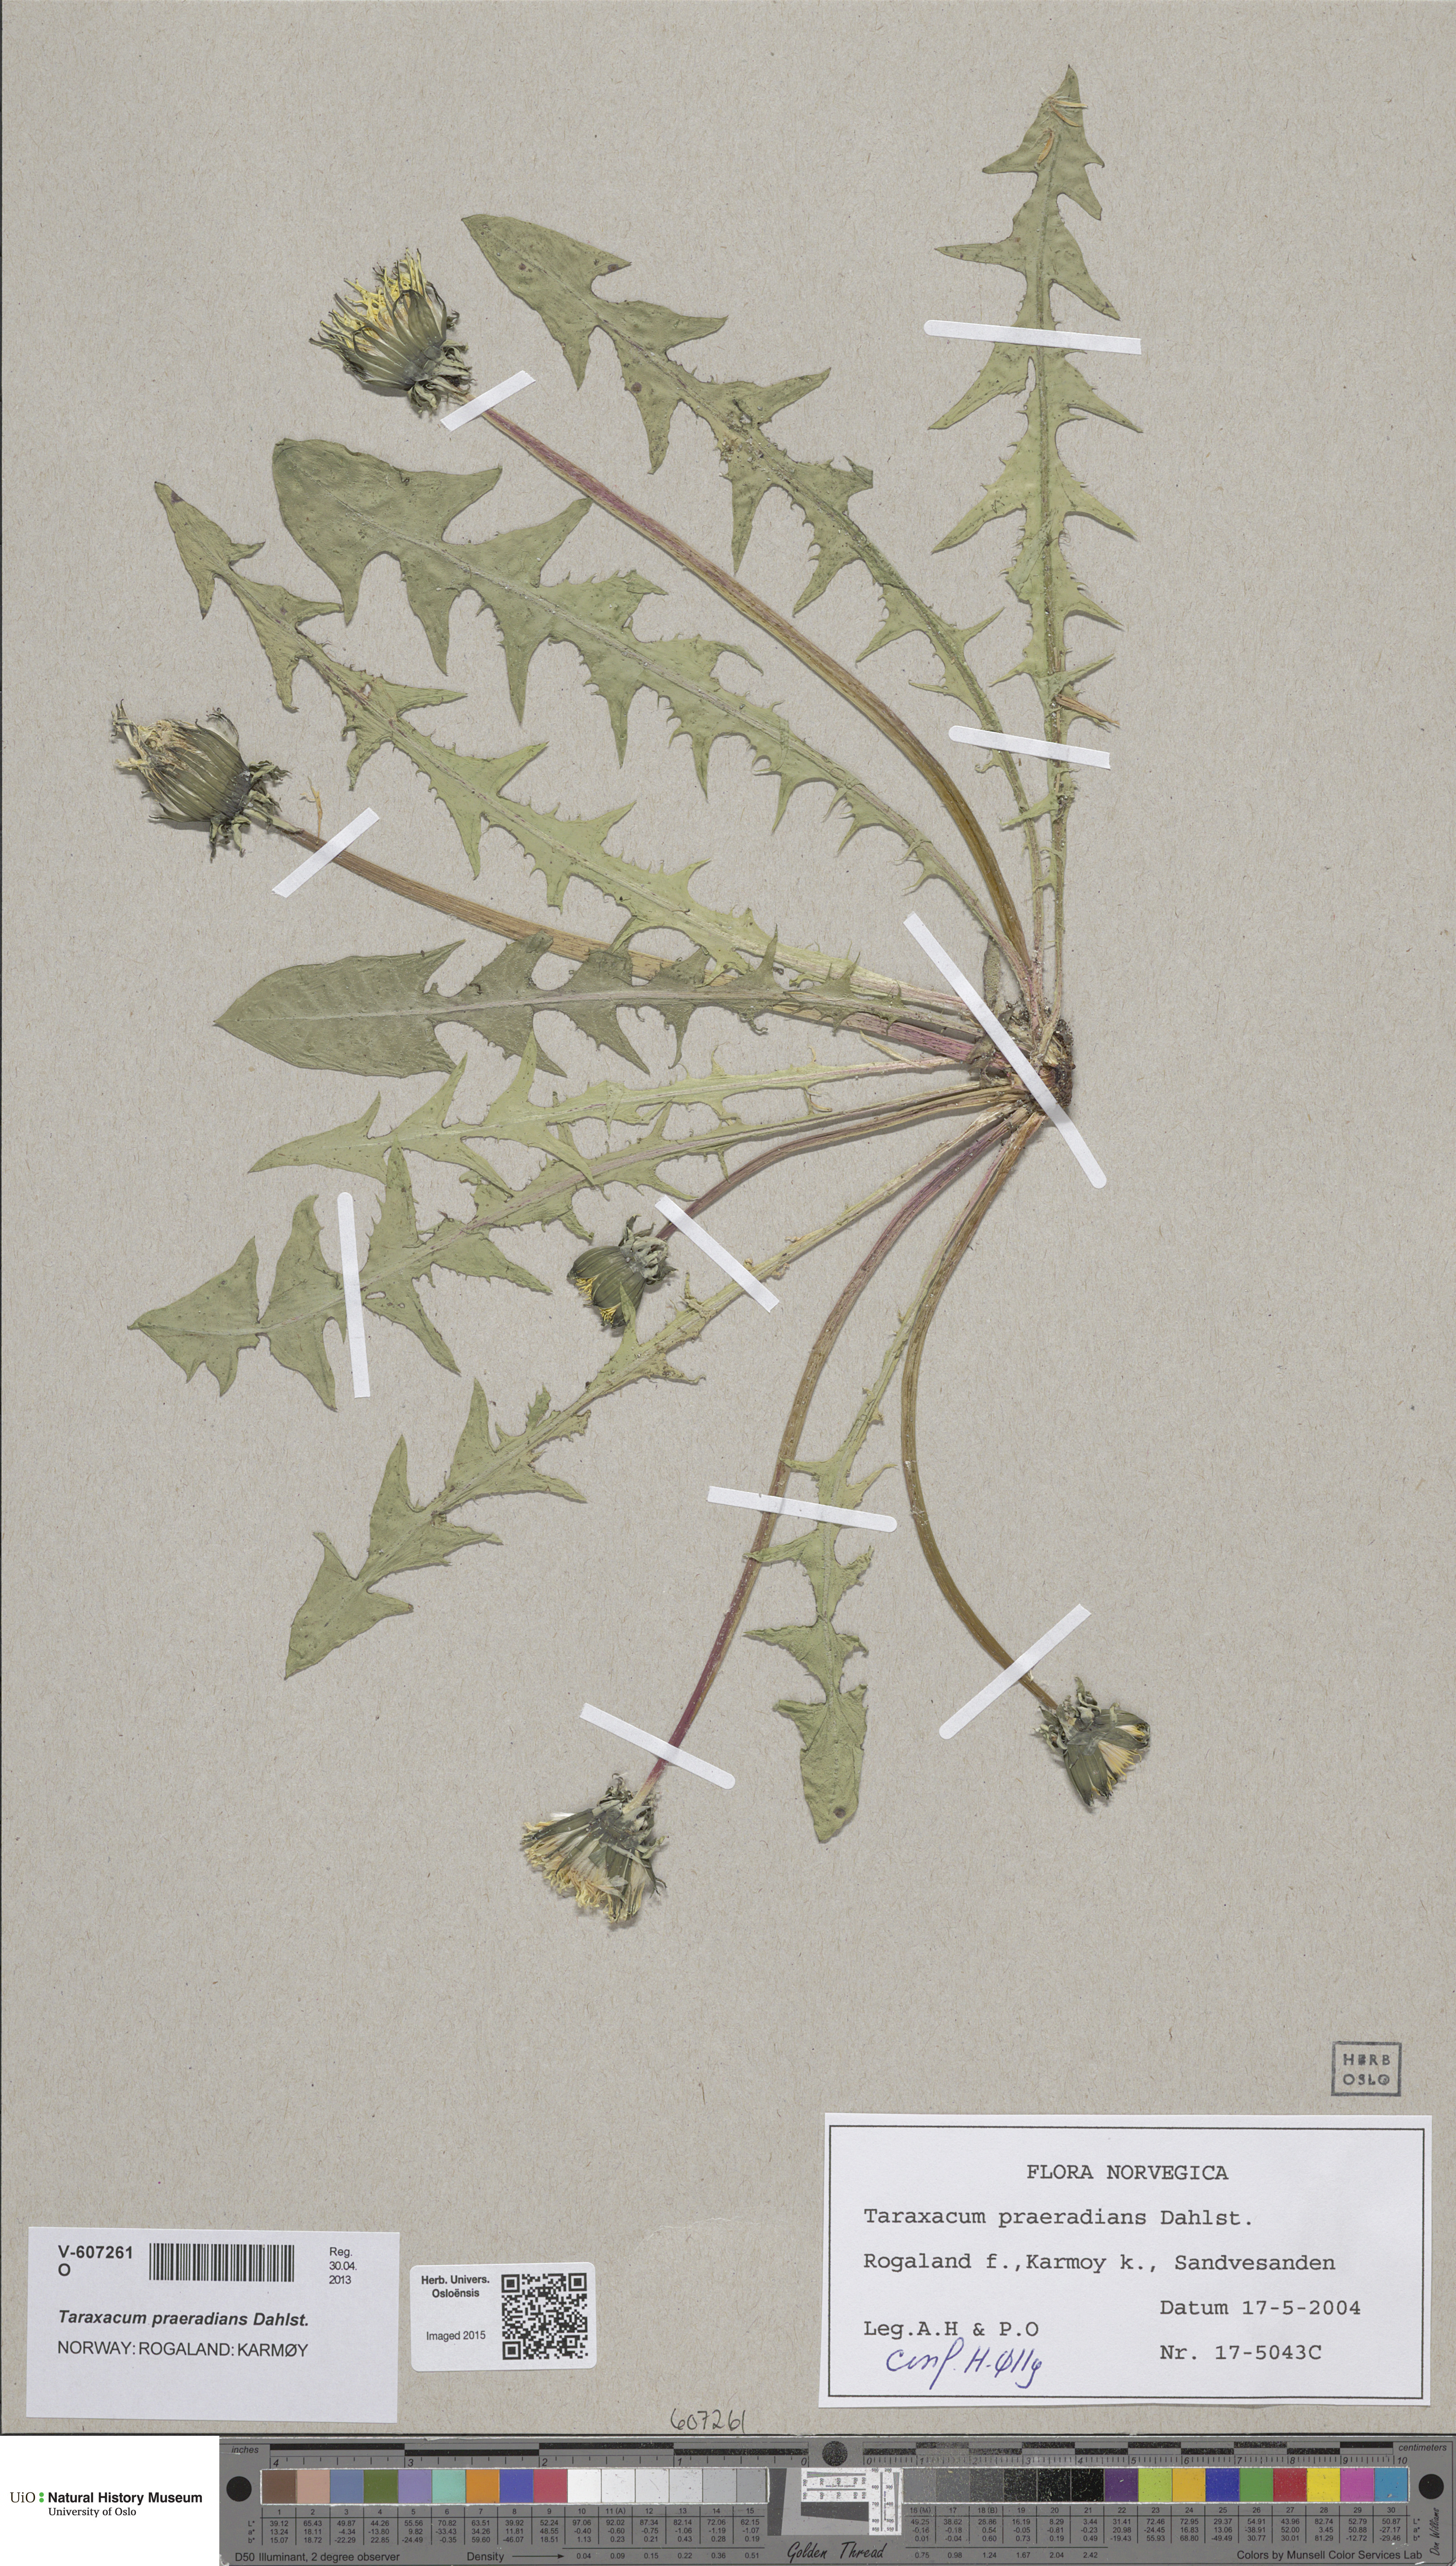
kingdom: Plantae
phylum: Tracheophyta
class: Magnoliopsida
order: Asterales
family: Asteraceae
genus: Taraxacum
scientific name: Taraxacum praeradians
